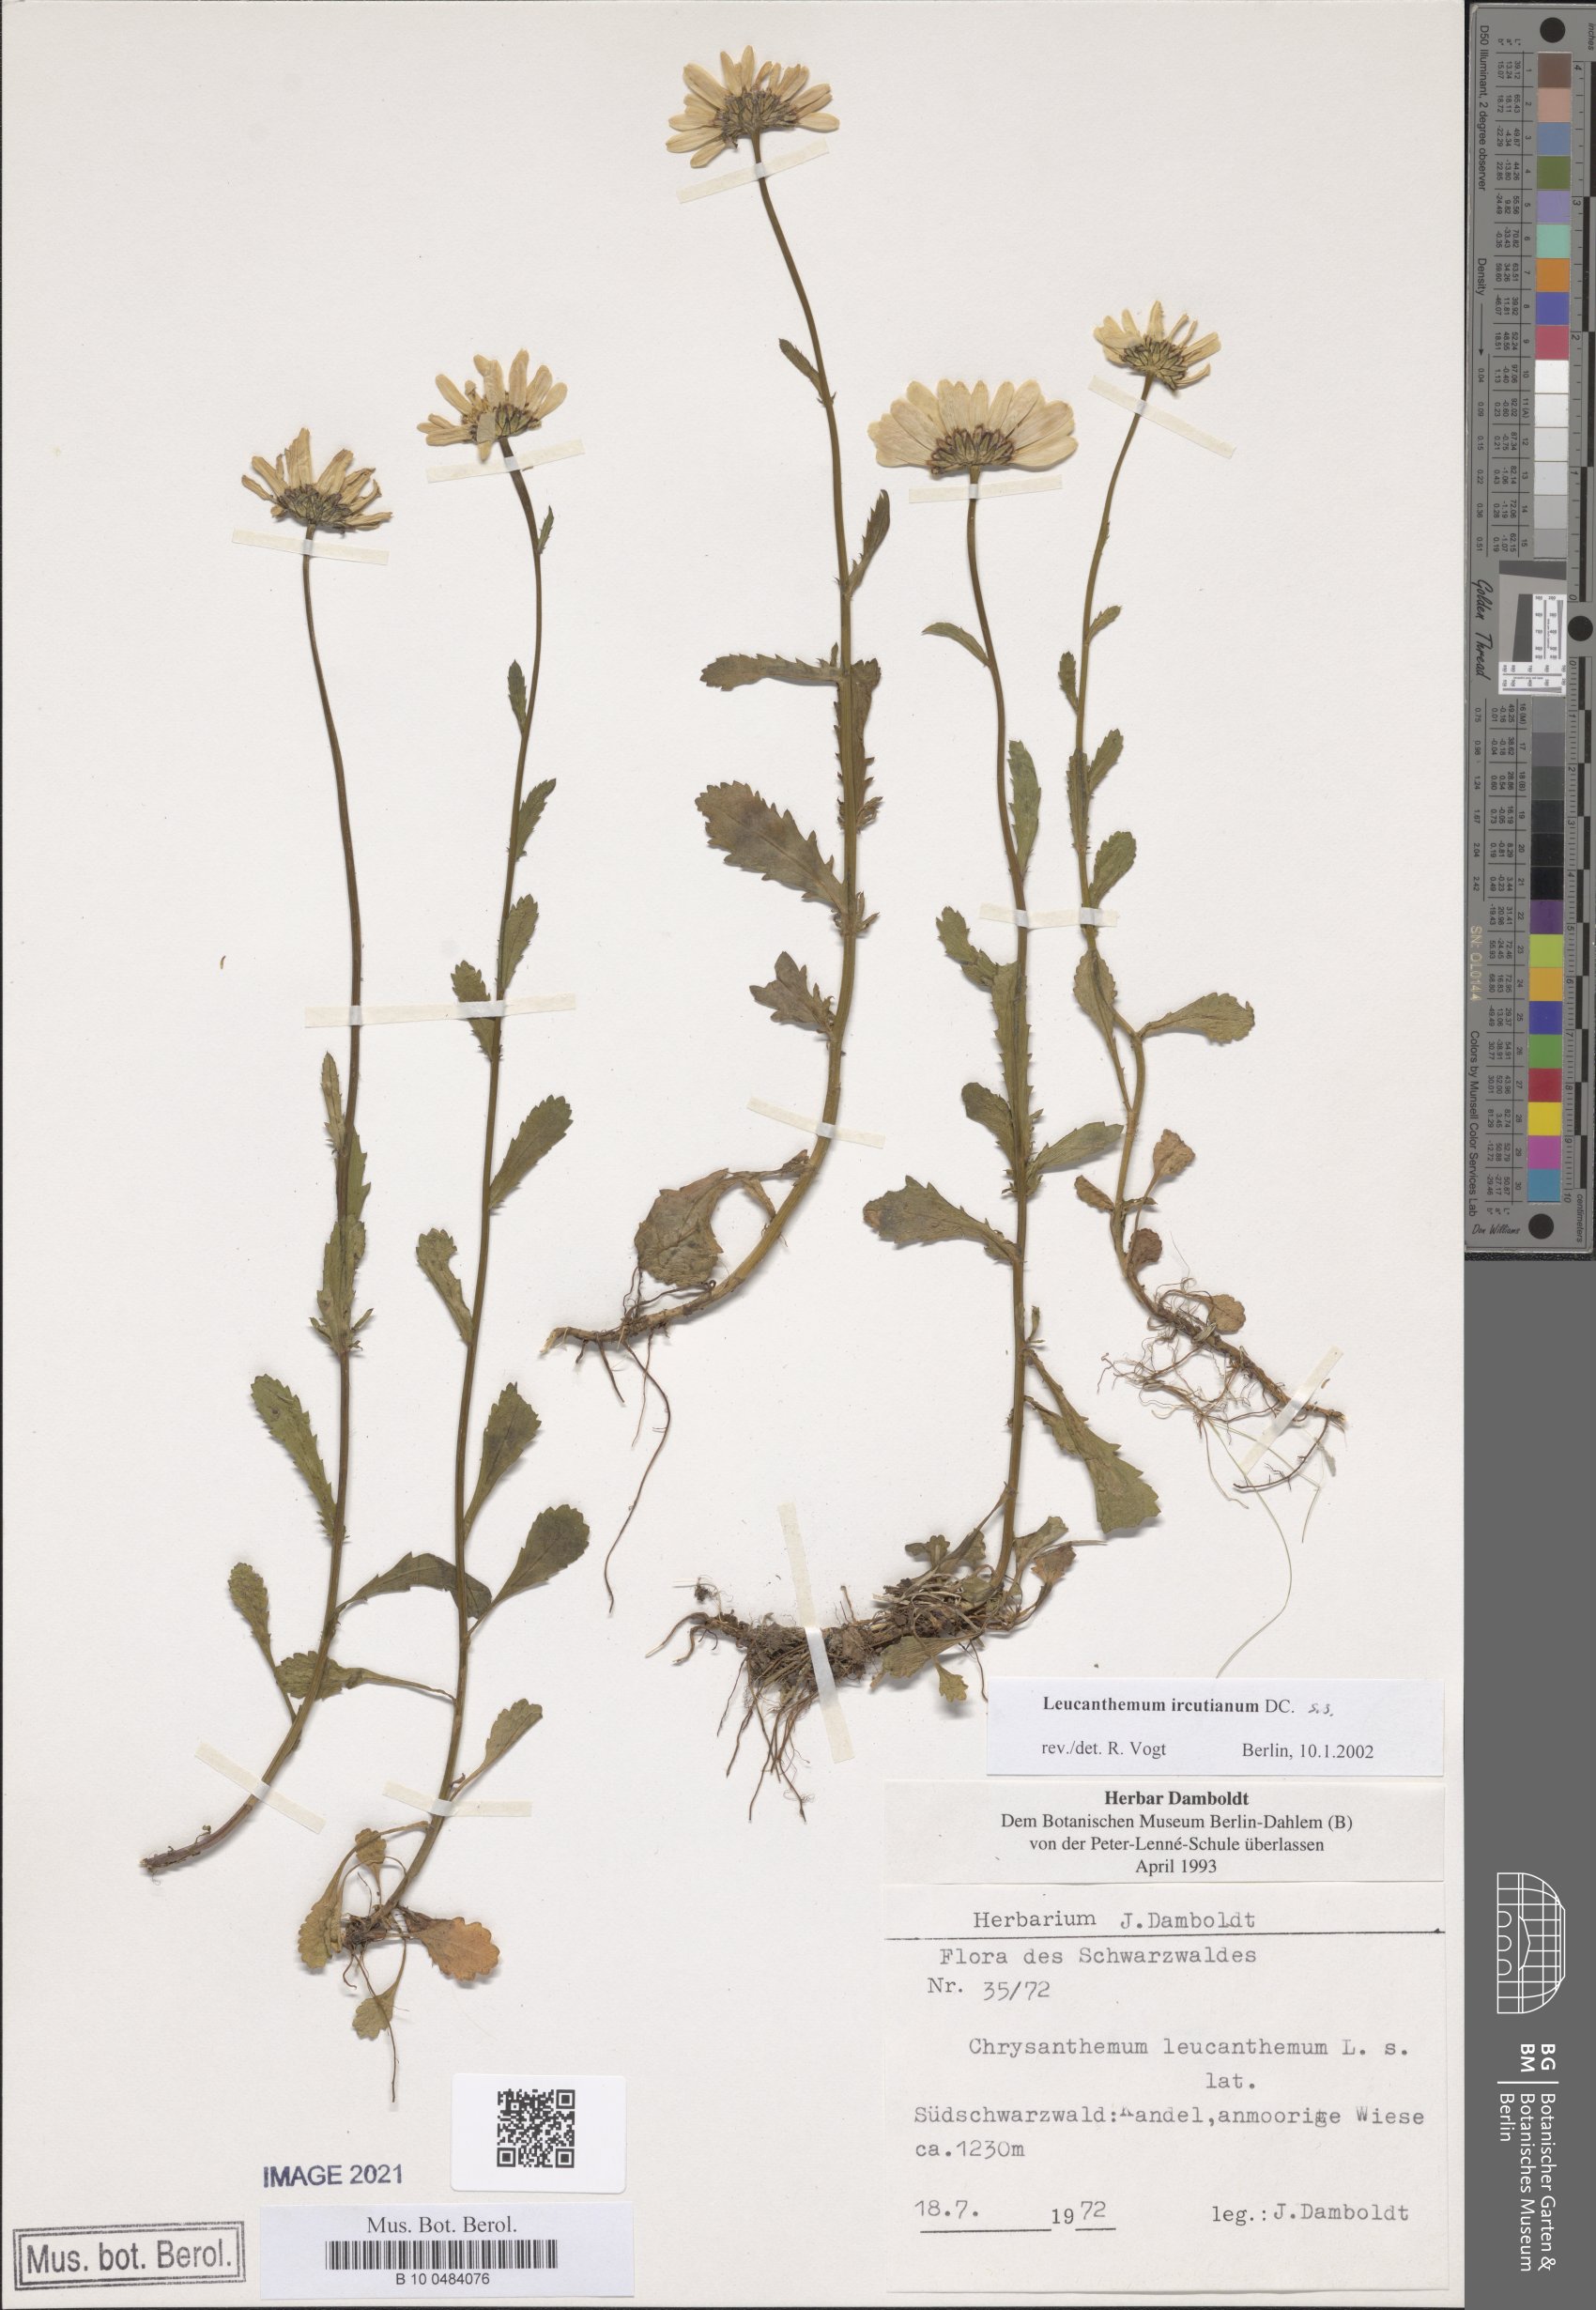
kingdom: Plantae
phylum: Tracheophyta
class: Magnoliopsida
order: Asterales
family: Asteraceae
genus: Leucanthemum
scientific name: Leucanthemum ircutianum
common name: Daisy
